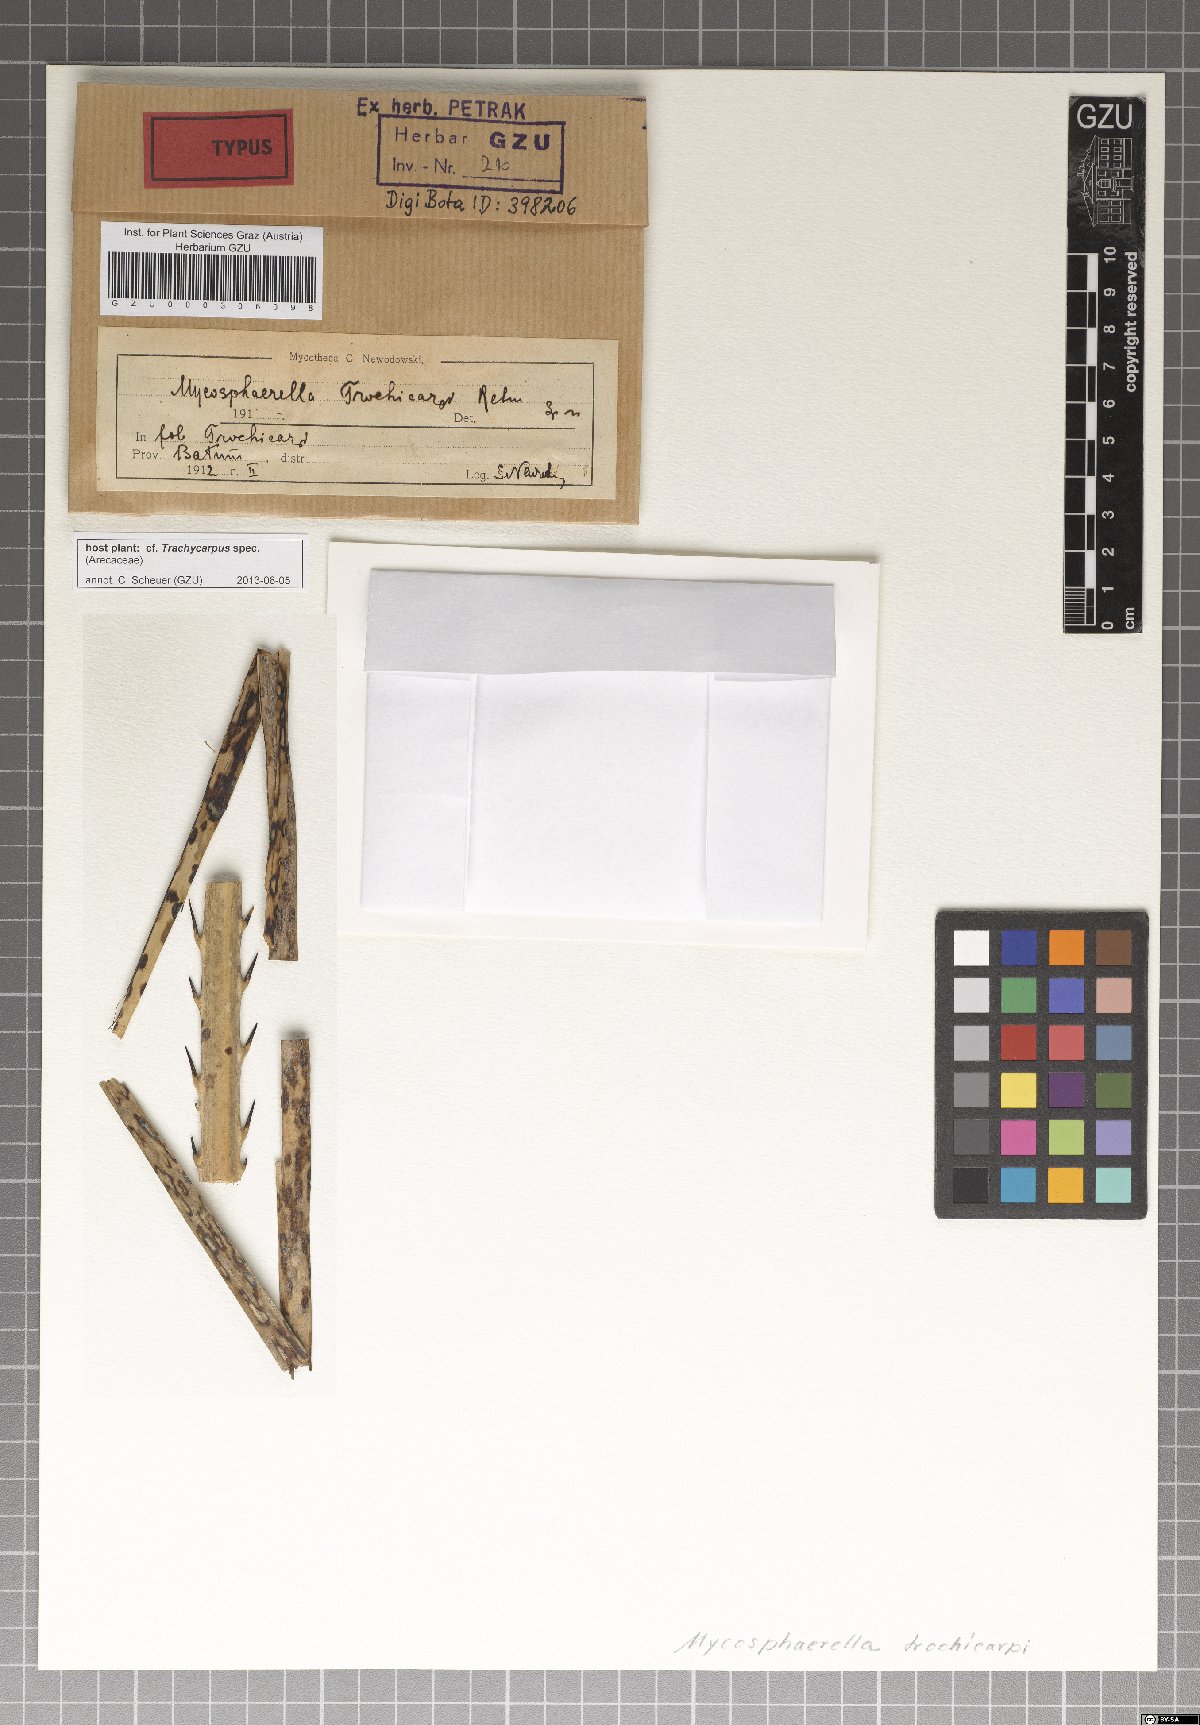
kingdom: Fungi
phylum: Ascomycota
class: Dothideomycetes
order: Mycosphaerellales
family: Mycosphaerellaceae
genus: Mycosphaerella
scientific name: Mycosphaerella trachycarpi
